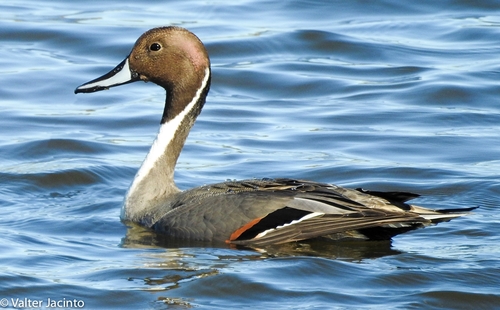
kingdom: Animalia
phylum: Chordata
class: Aves
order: Anseriformes
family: Anatidae
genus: Anas
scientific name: Anas acuta
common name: Northern pintail
